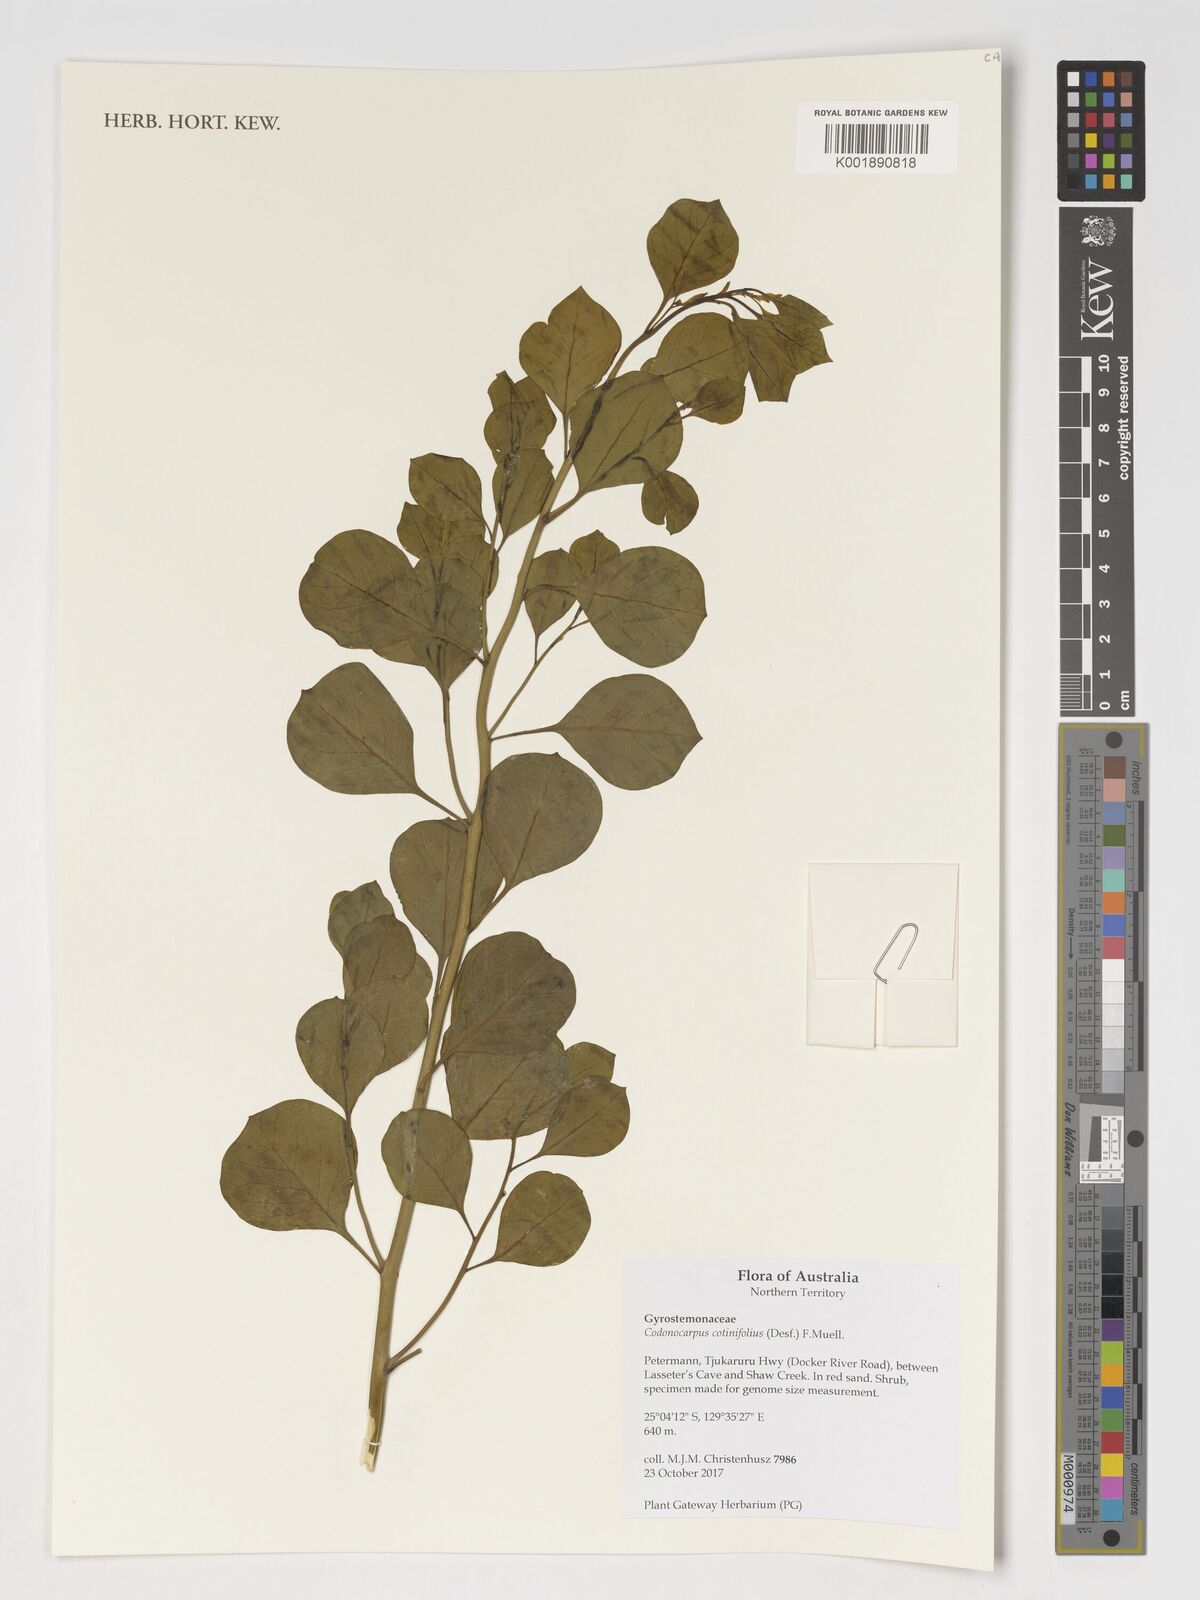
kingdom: Plantae
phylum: Tracheophyta
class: Magnoliopsida
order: Brassicales
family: Gyrostemonaceae
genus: Codonocarpus
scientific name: Codonocarpus cotinifolius
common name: Mustardtree
